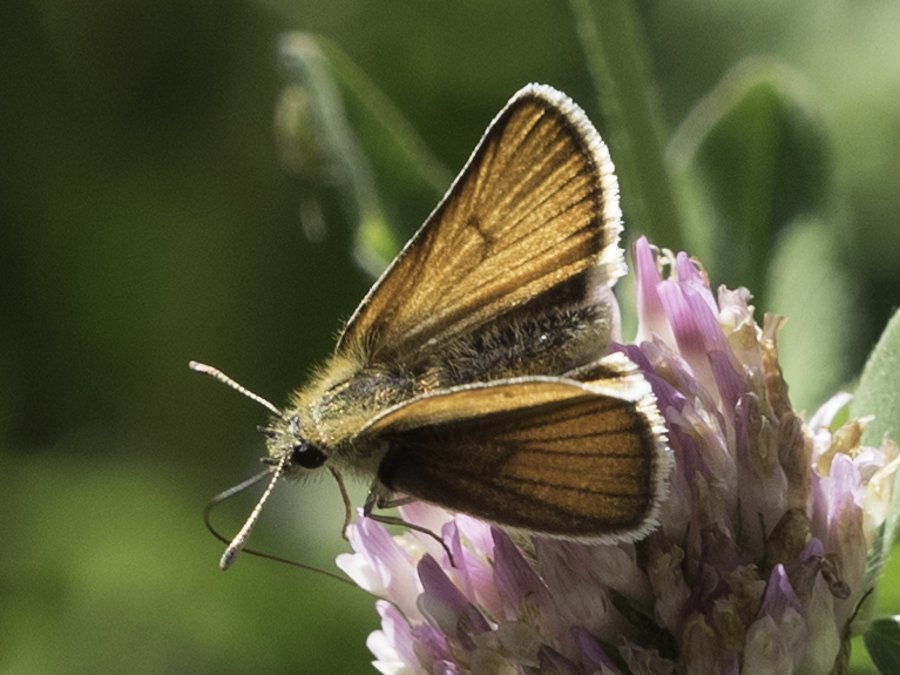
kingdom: Animalia
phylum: Arthropoda
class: Insecta
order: Lepidoptera
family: Hesperiidae
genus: Thymelicus
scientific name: Thymelicus lineola
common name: European Skipper
